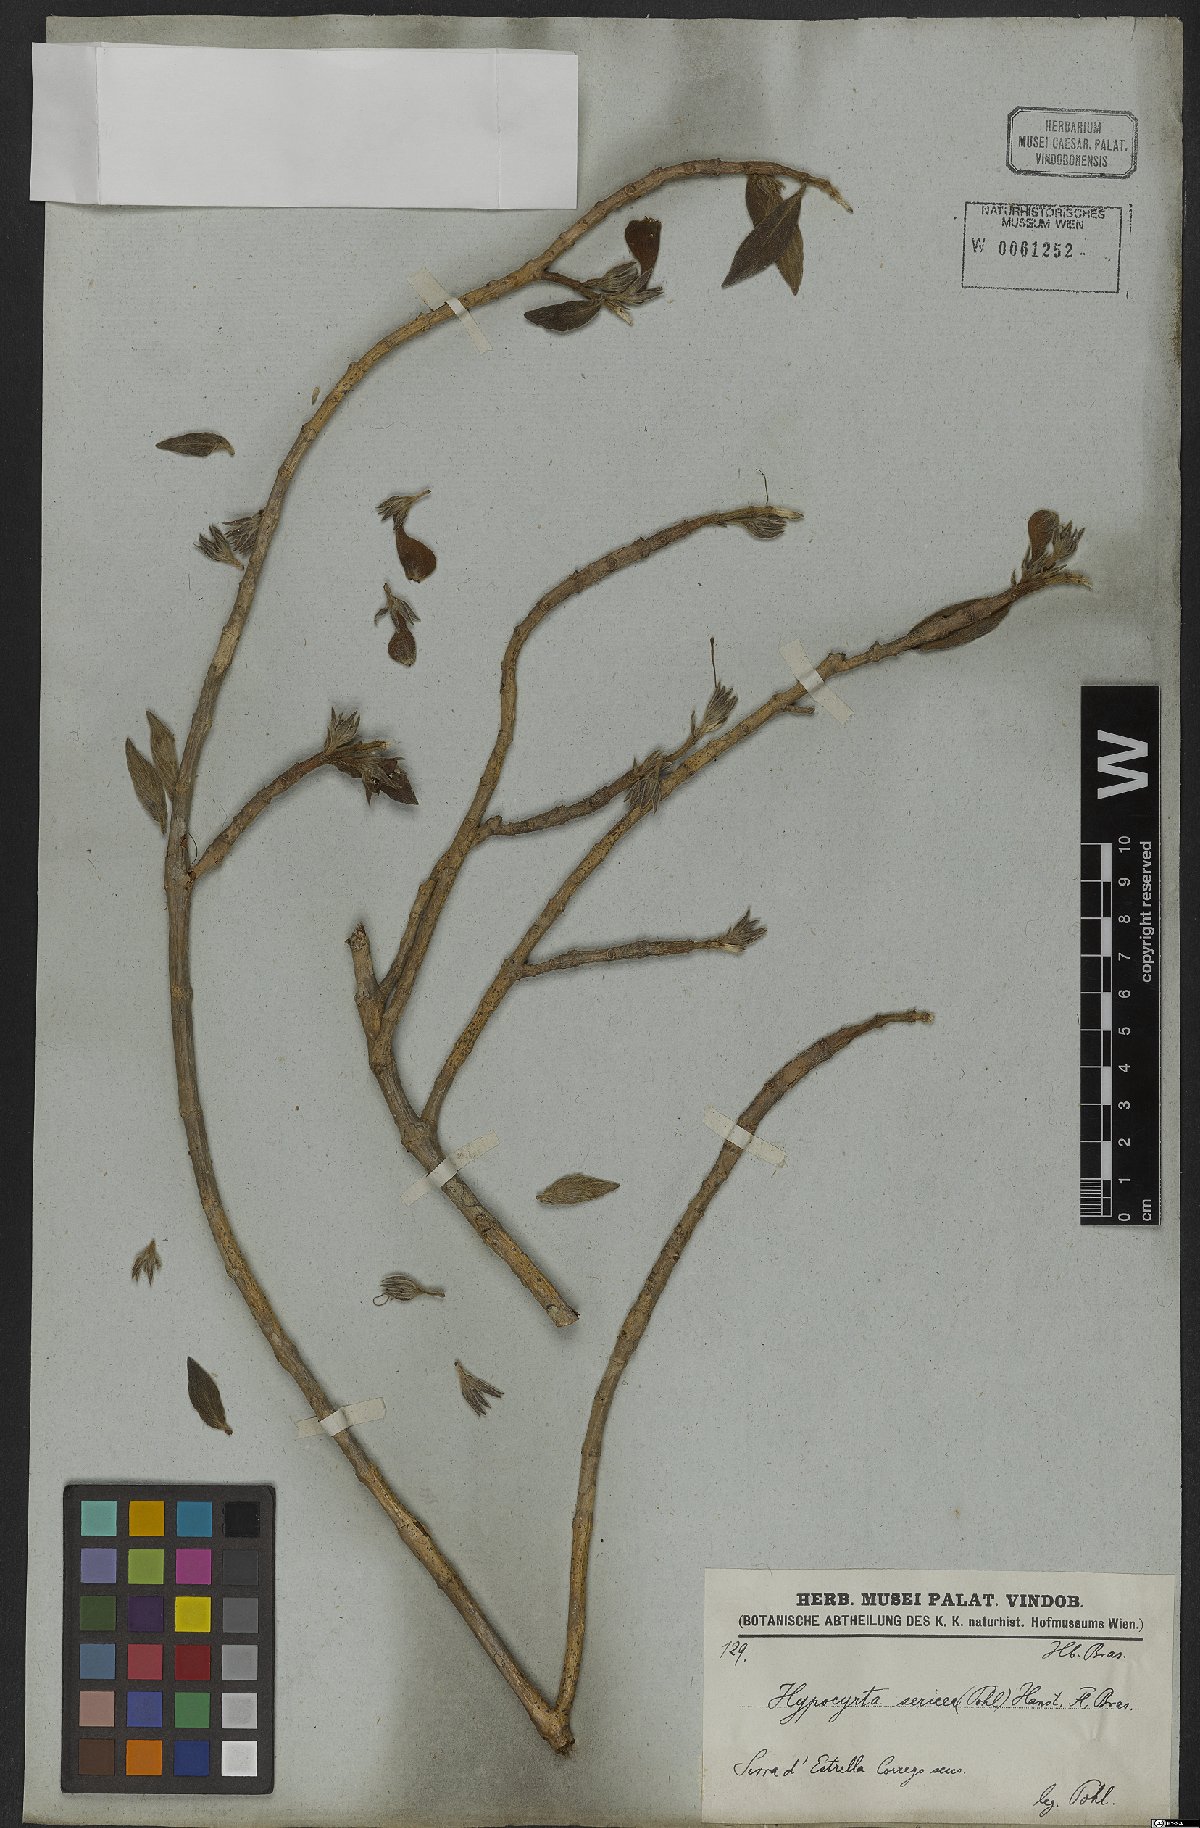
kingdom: Plantae
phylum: Tracheophyta
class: Magnoliopsida
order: Lamiales
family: Gesneriaceae
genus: Nematanthus
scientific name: Nematanthus sericeus
